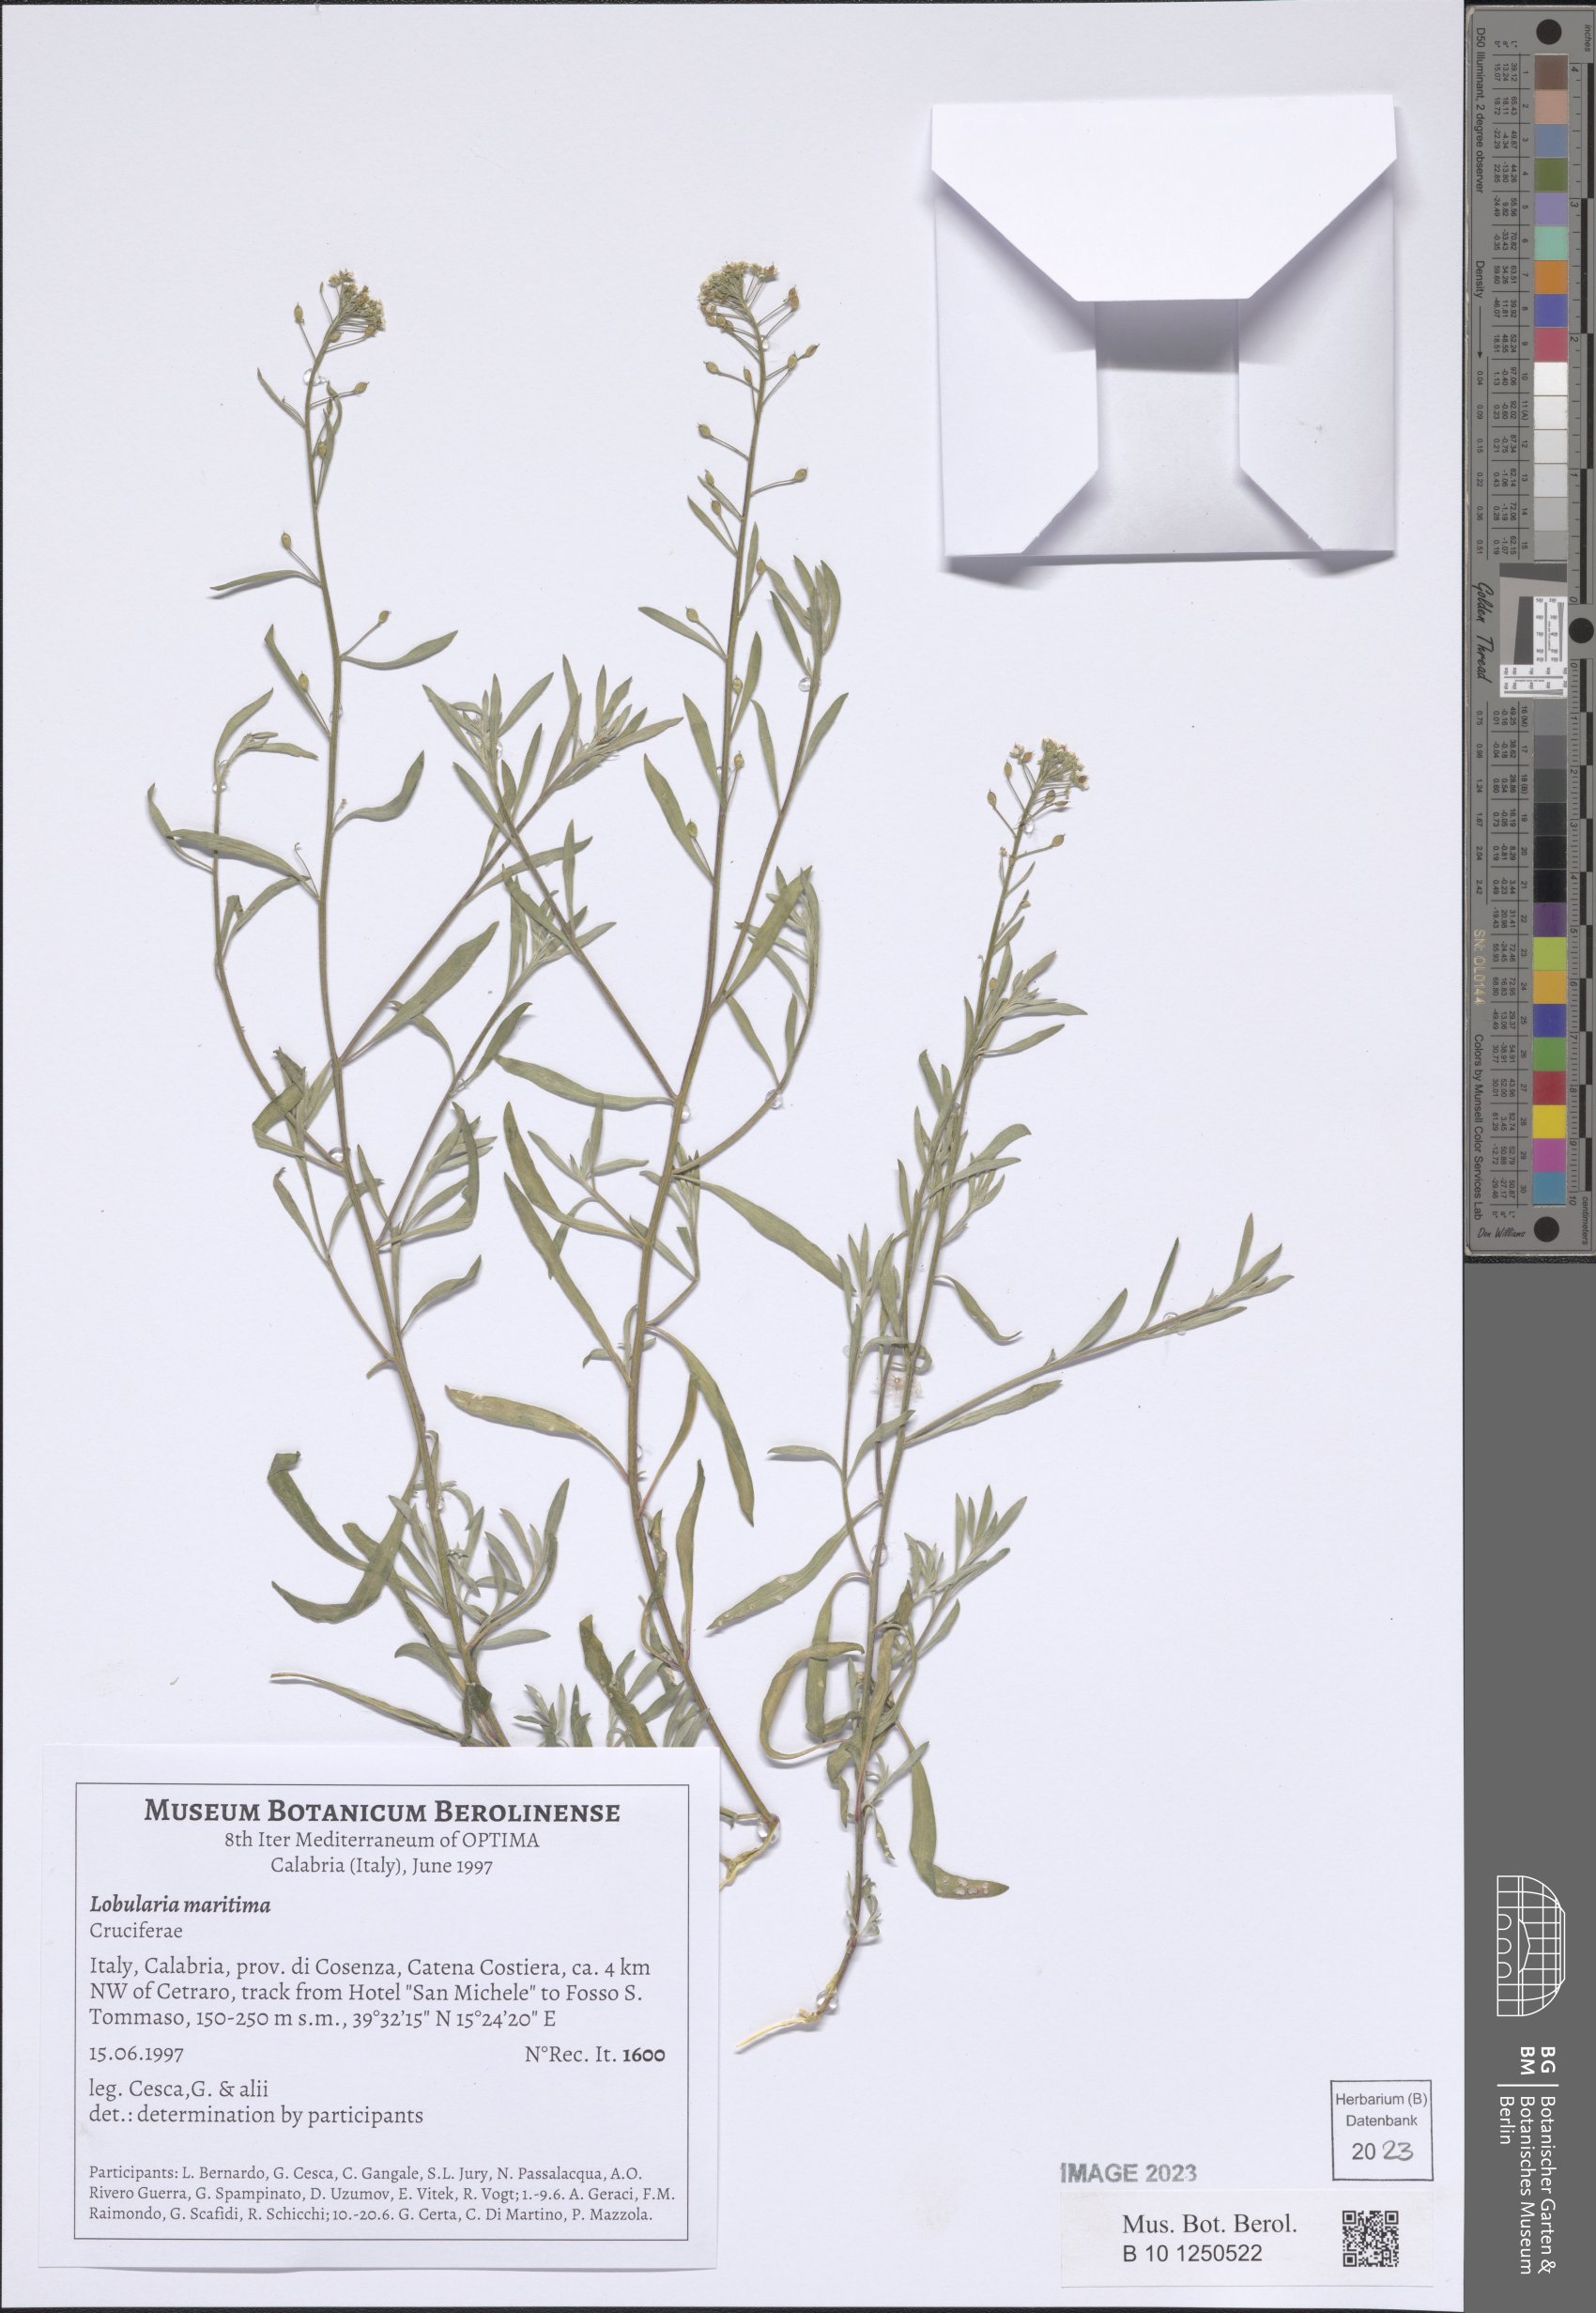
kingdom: Plantae
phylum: Tracheophyta
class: Magnoliopsida
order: Brassicales
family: Brassicaceae
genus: Lobularia
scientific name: Lobularia maritima
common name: Sweet alison
